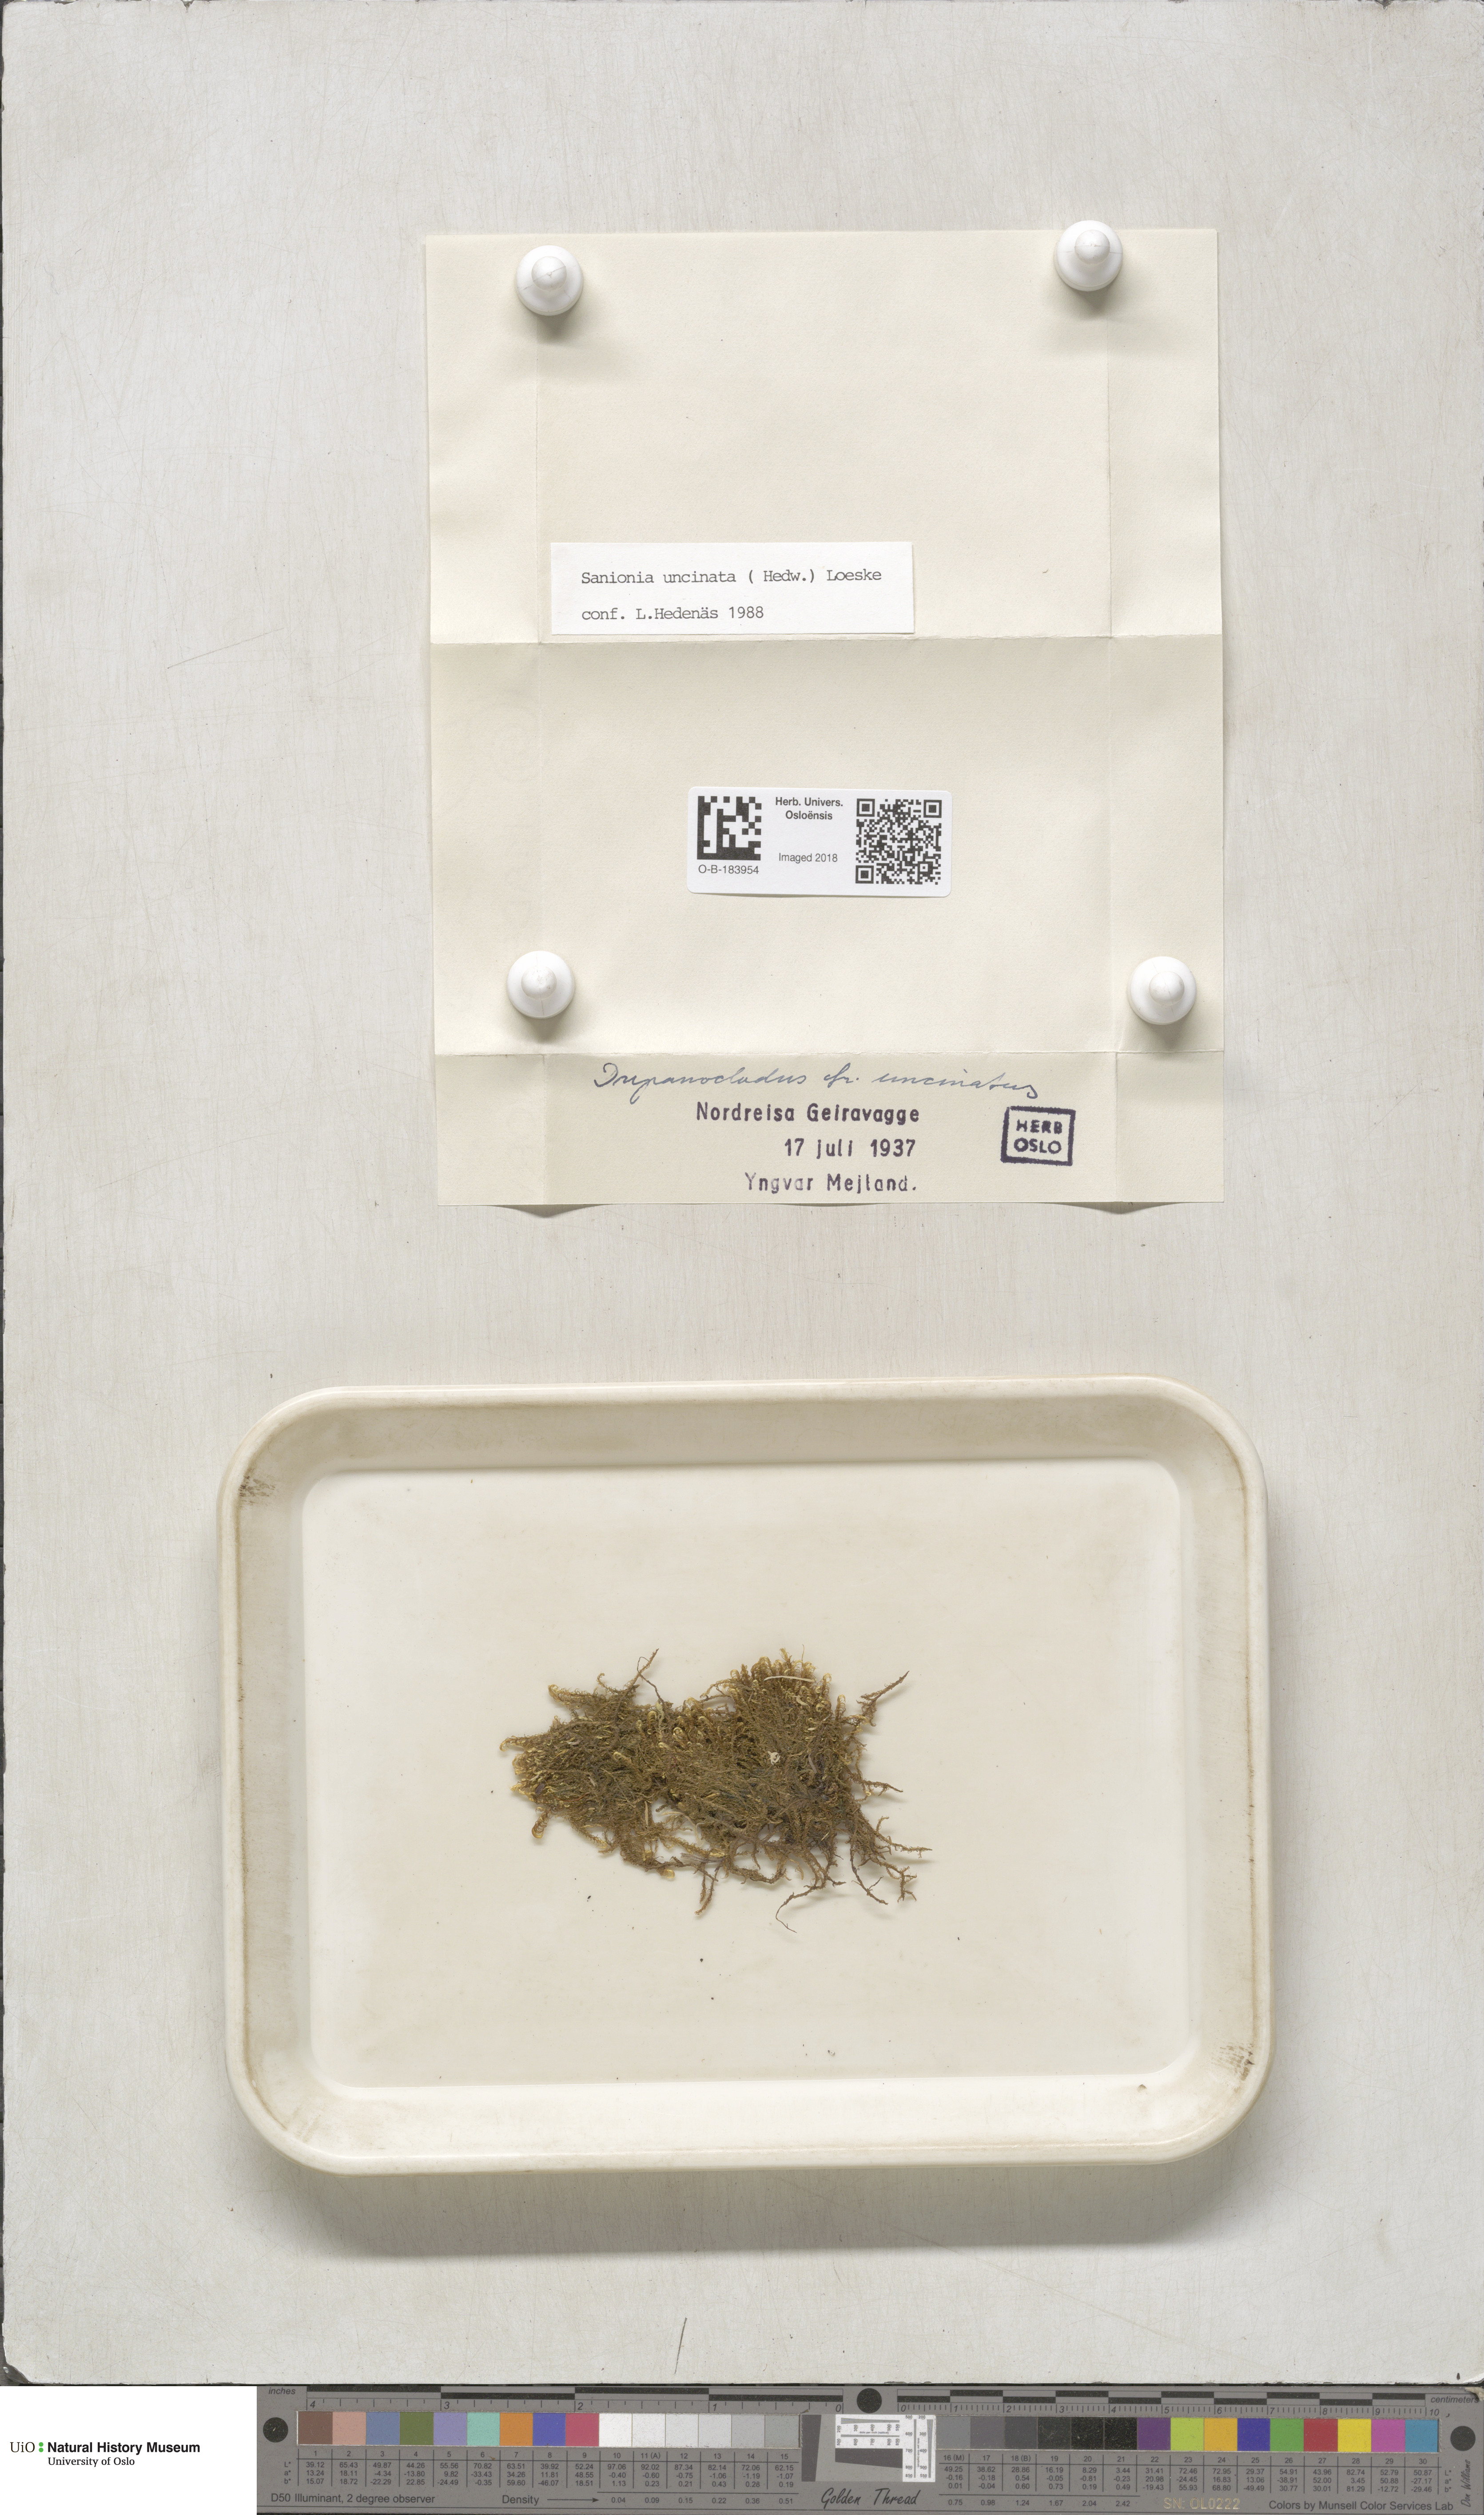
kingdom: Plantae
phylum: Bryophyta
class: Bryopsida
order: Hypnales
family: Scorpidiaceae
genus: Sanionia
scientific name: Sanionia uncinata
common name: Sickle moss
